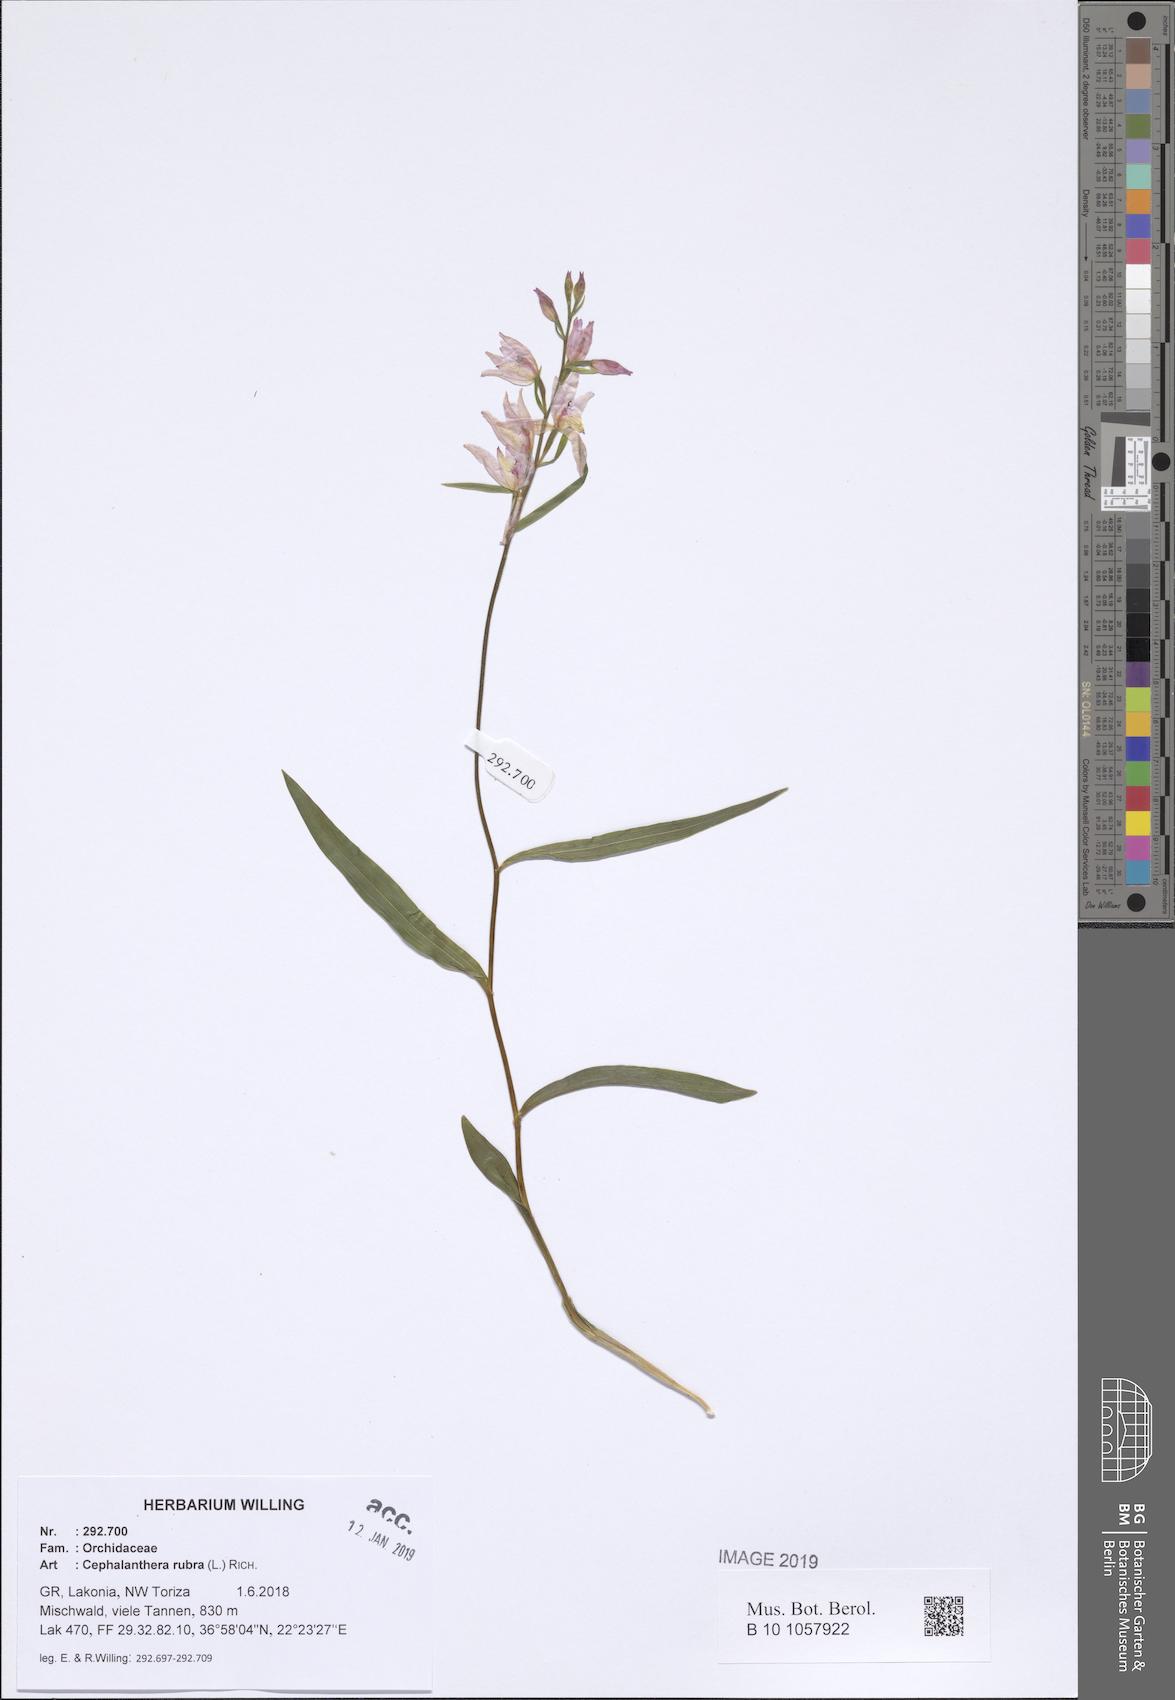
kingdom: Plantae
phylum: Tracheophyta
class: Liliopsida
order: Asparagales
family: Orchidaceae
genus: Cephalanthera
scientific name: Cephalanthera rubra
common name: Red helleborine
